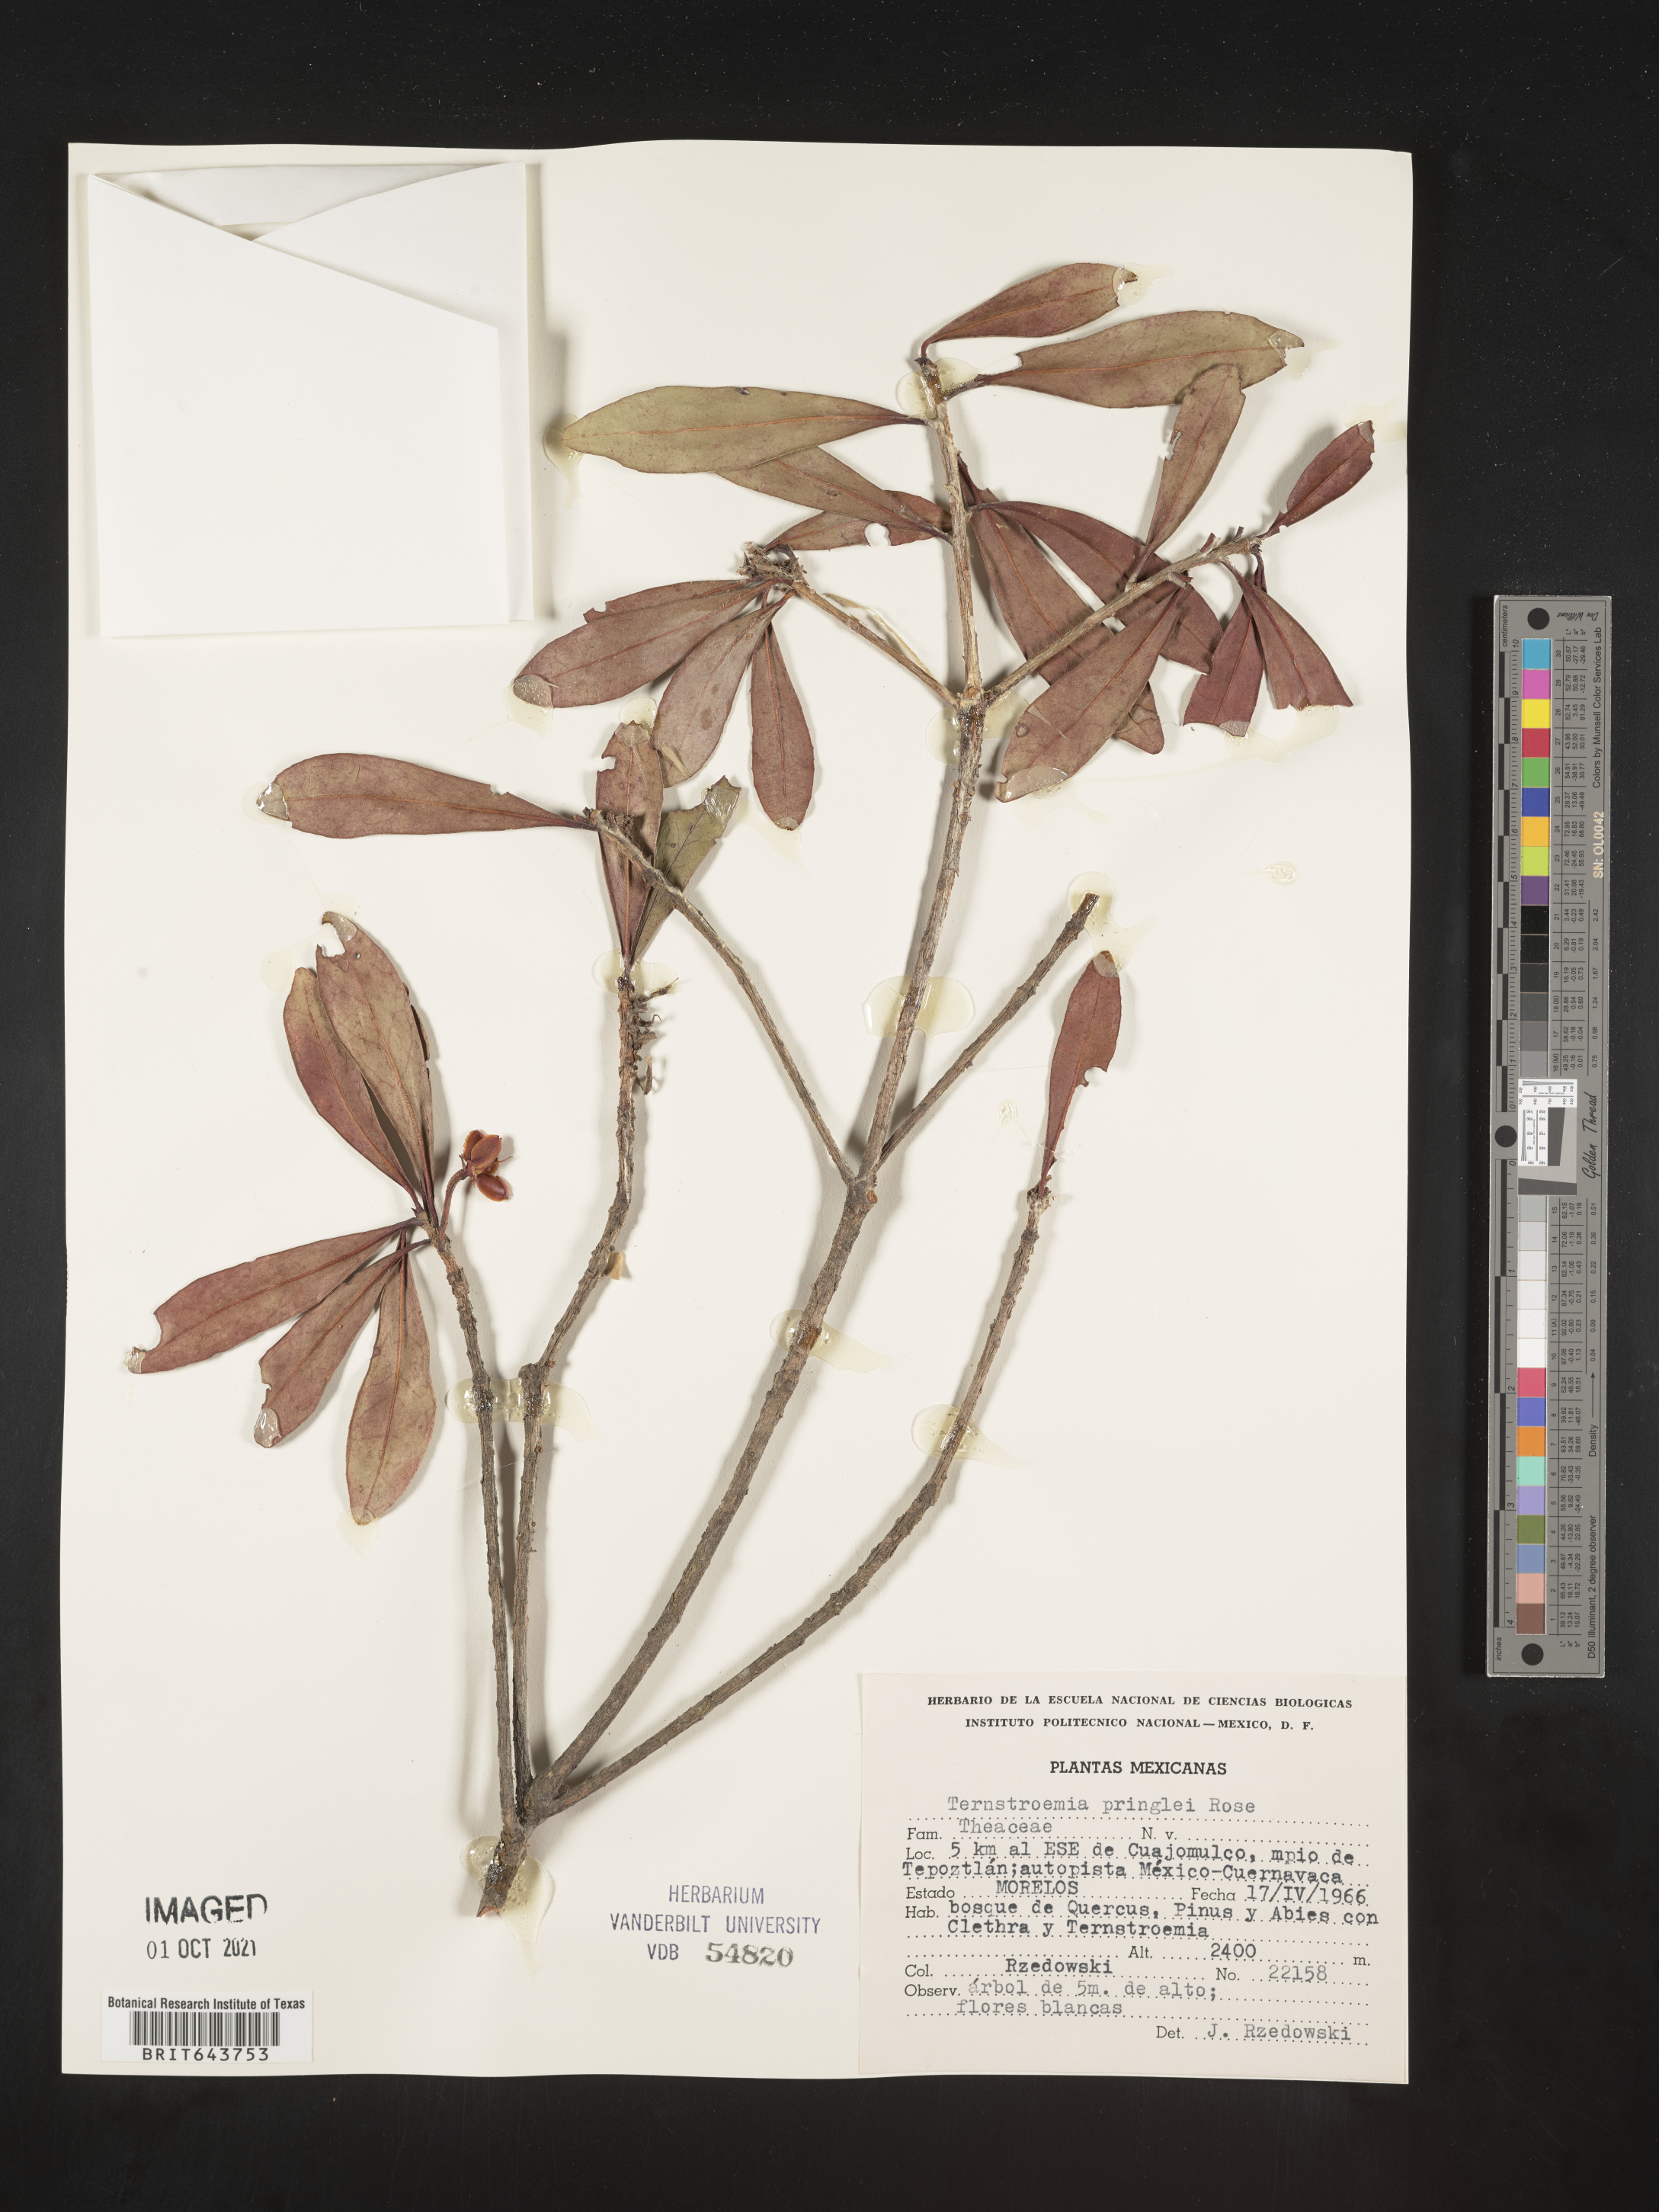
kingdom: Plantae
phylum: Tracheophyta
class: Magnoliopsida
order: Ericales
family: Pentaphylacaceae
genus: Ternstroemia
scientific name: Ternstroemia
